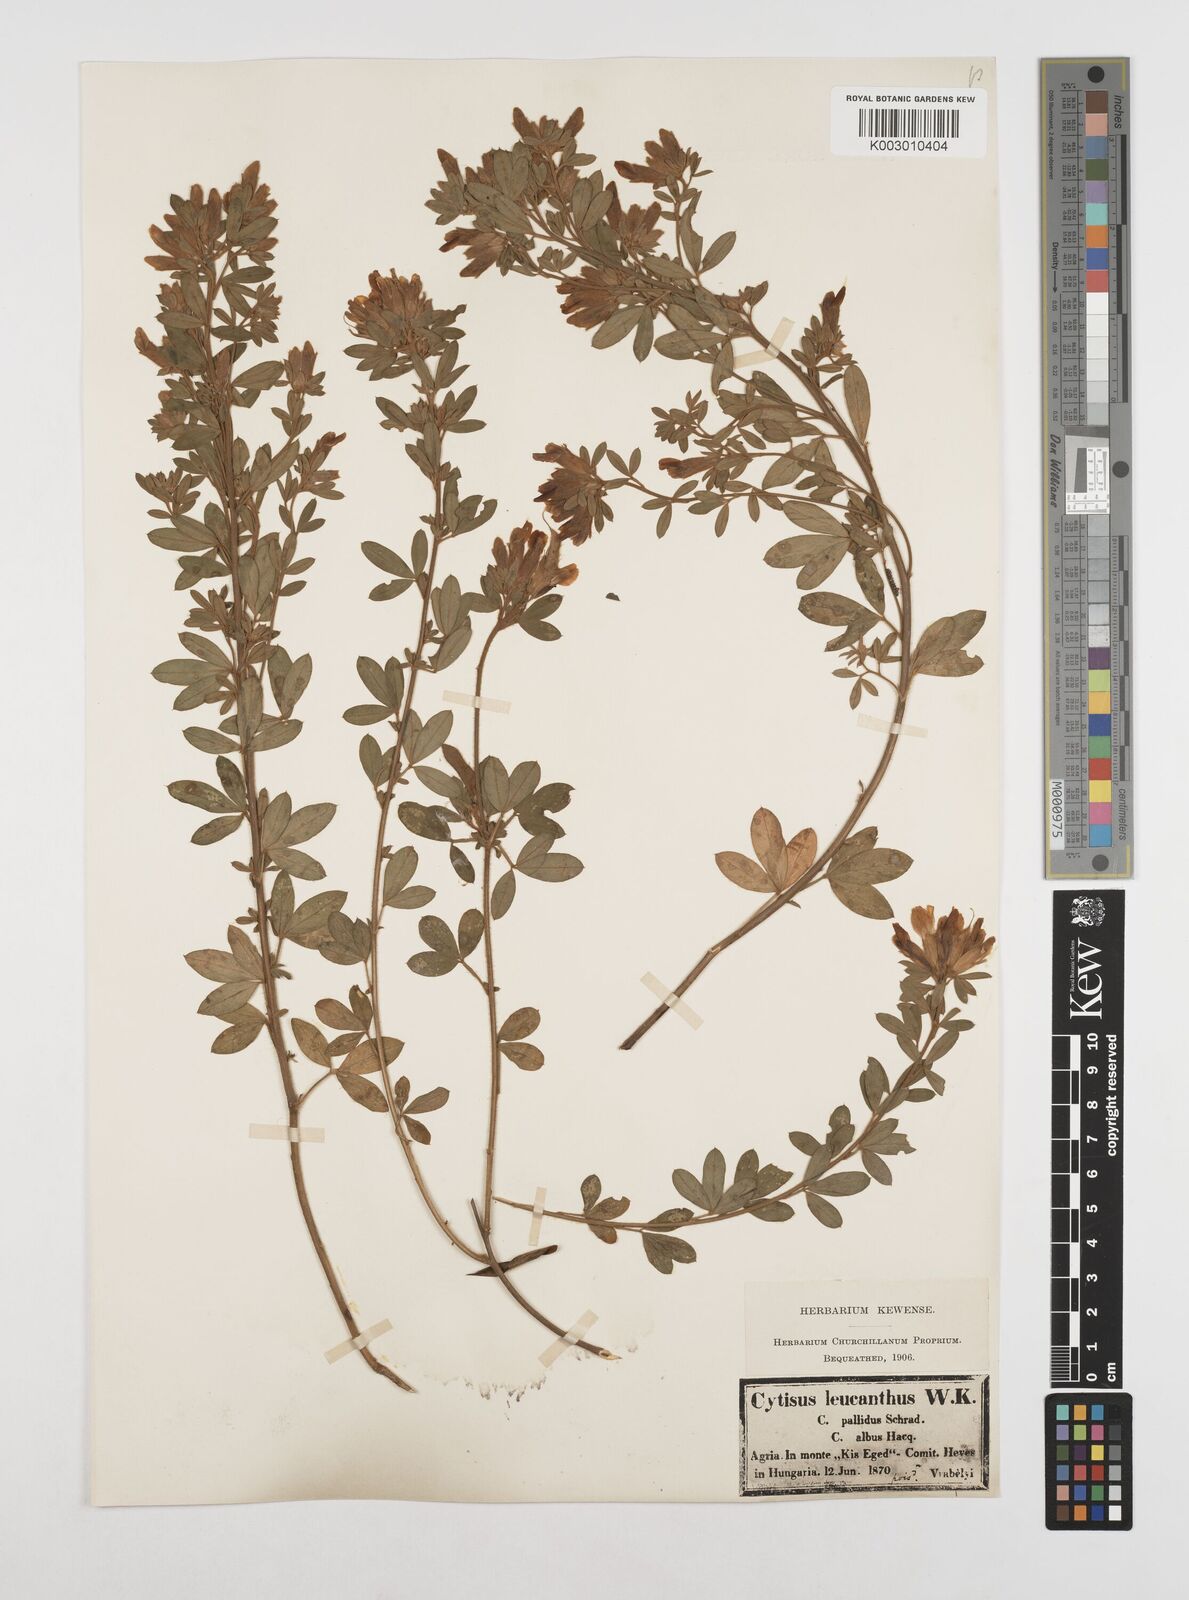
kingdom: Plantae
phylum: Tracheophyta
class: Magnoliopsida
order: Fabales
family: Fabaceae
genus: Chamaecytisus
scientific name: Chamaecytisus rochelii
